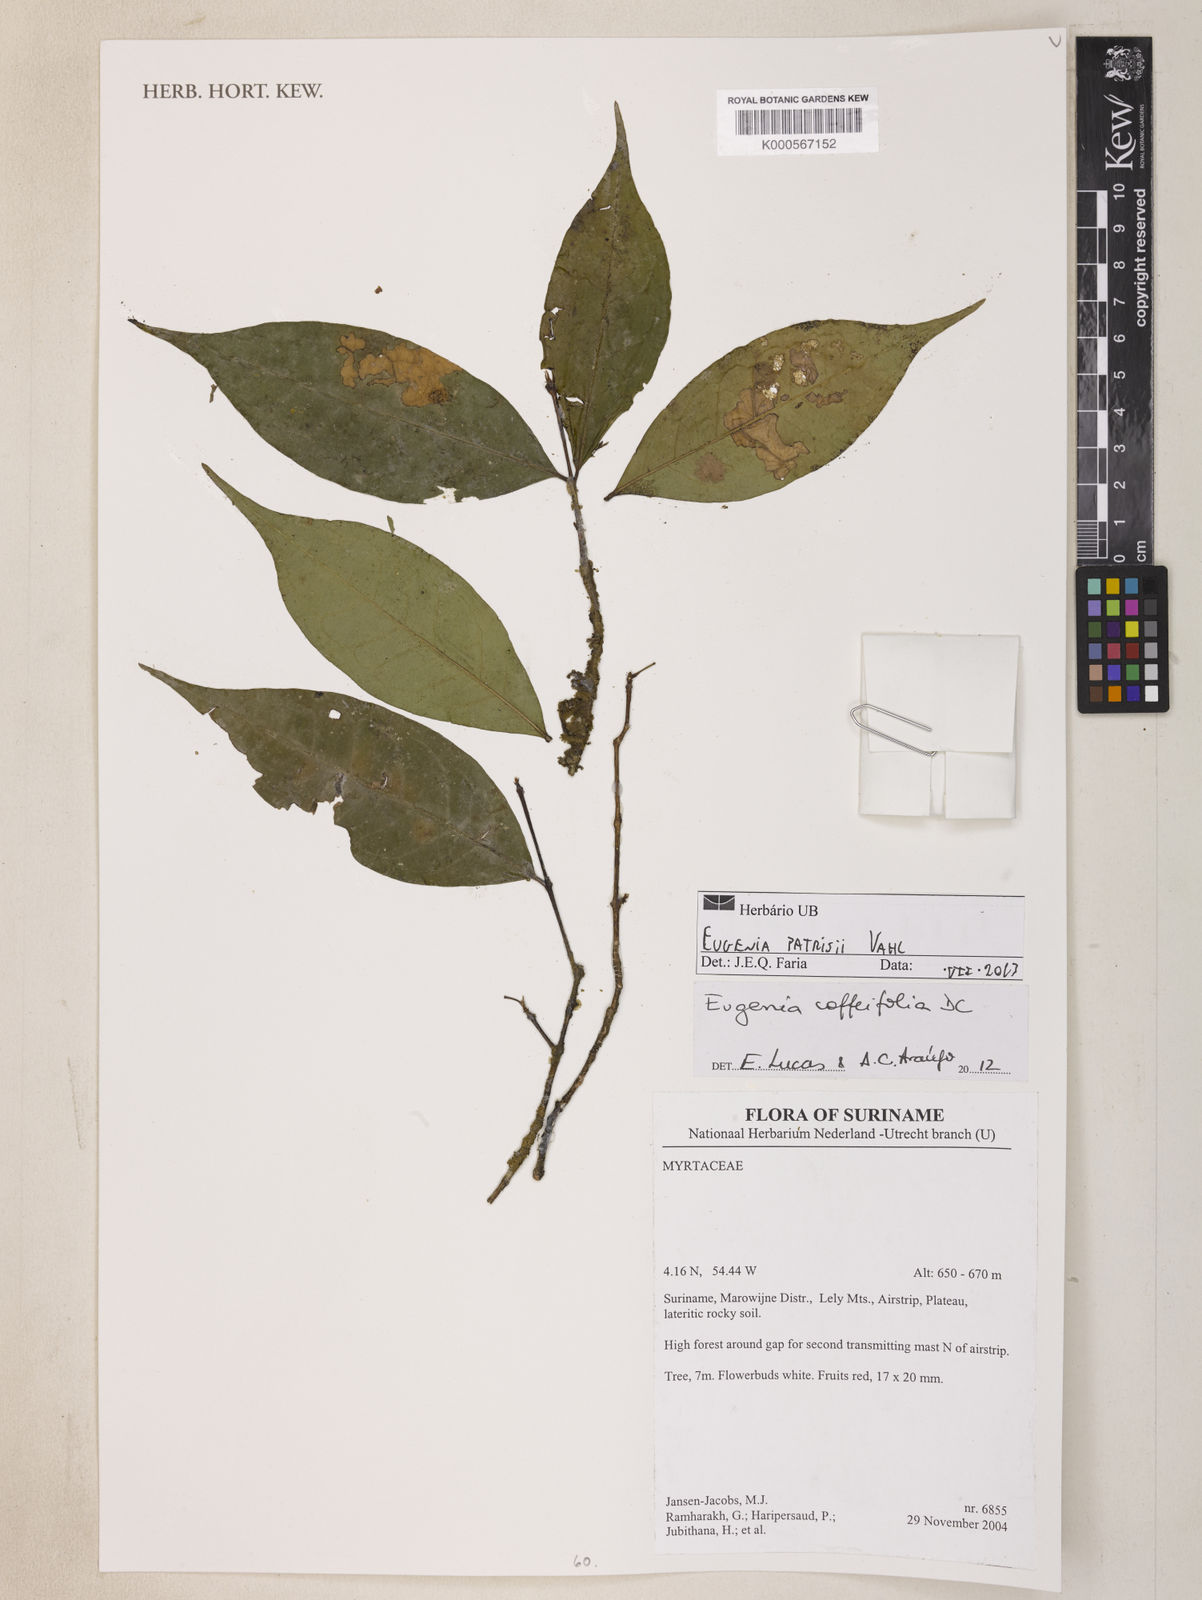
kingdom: Plantae
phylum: Tracheophyta
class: Magnoliopsida
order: Myrtales
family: Myrtaceae
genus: Eugenia
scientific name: Eugenia patrisii
